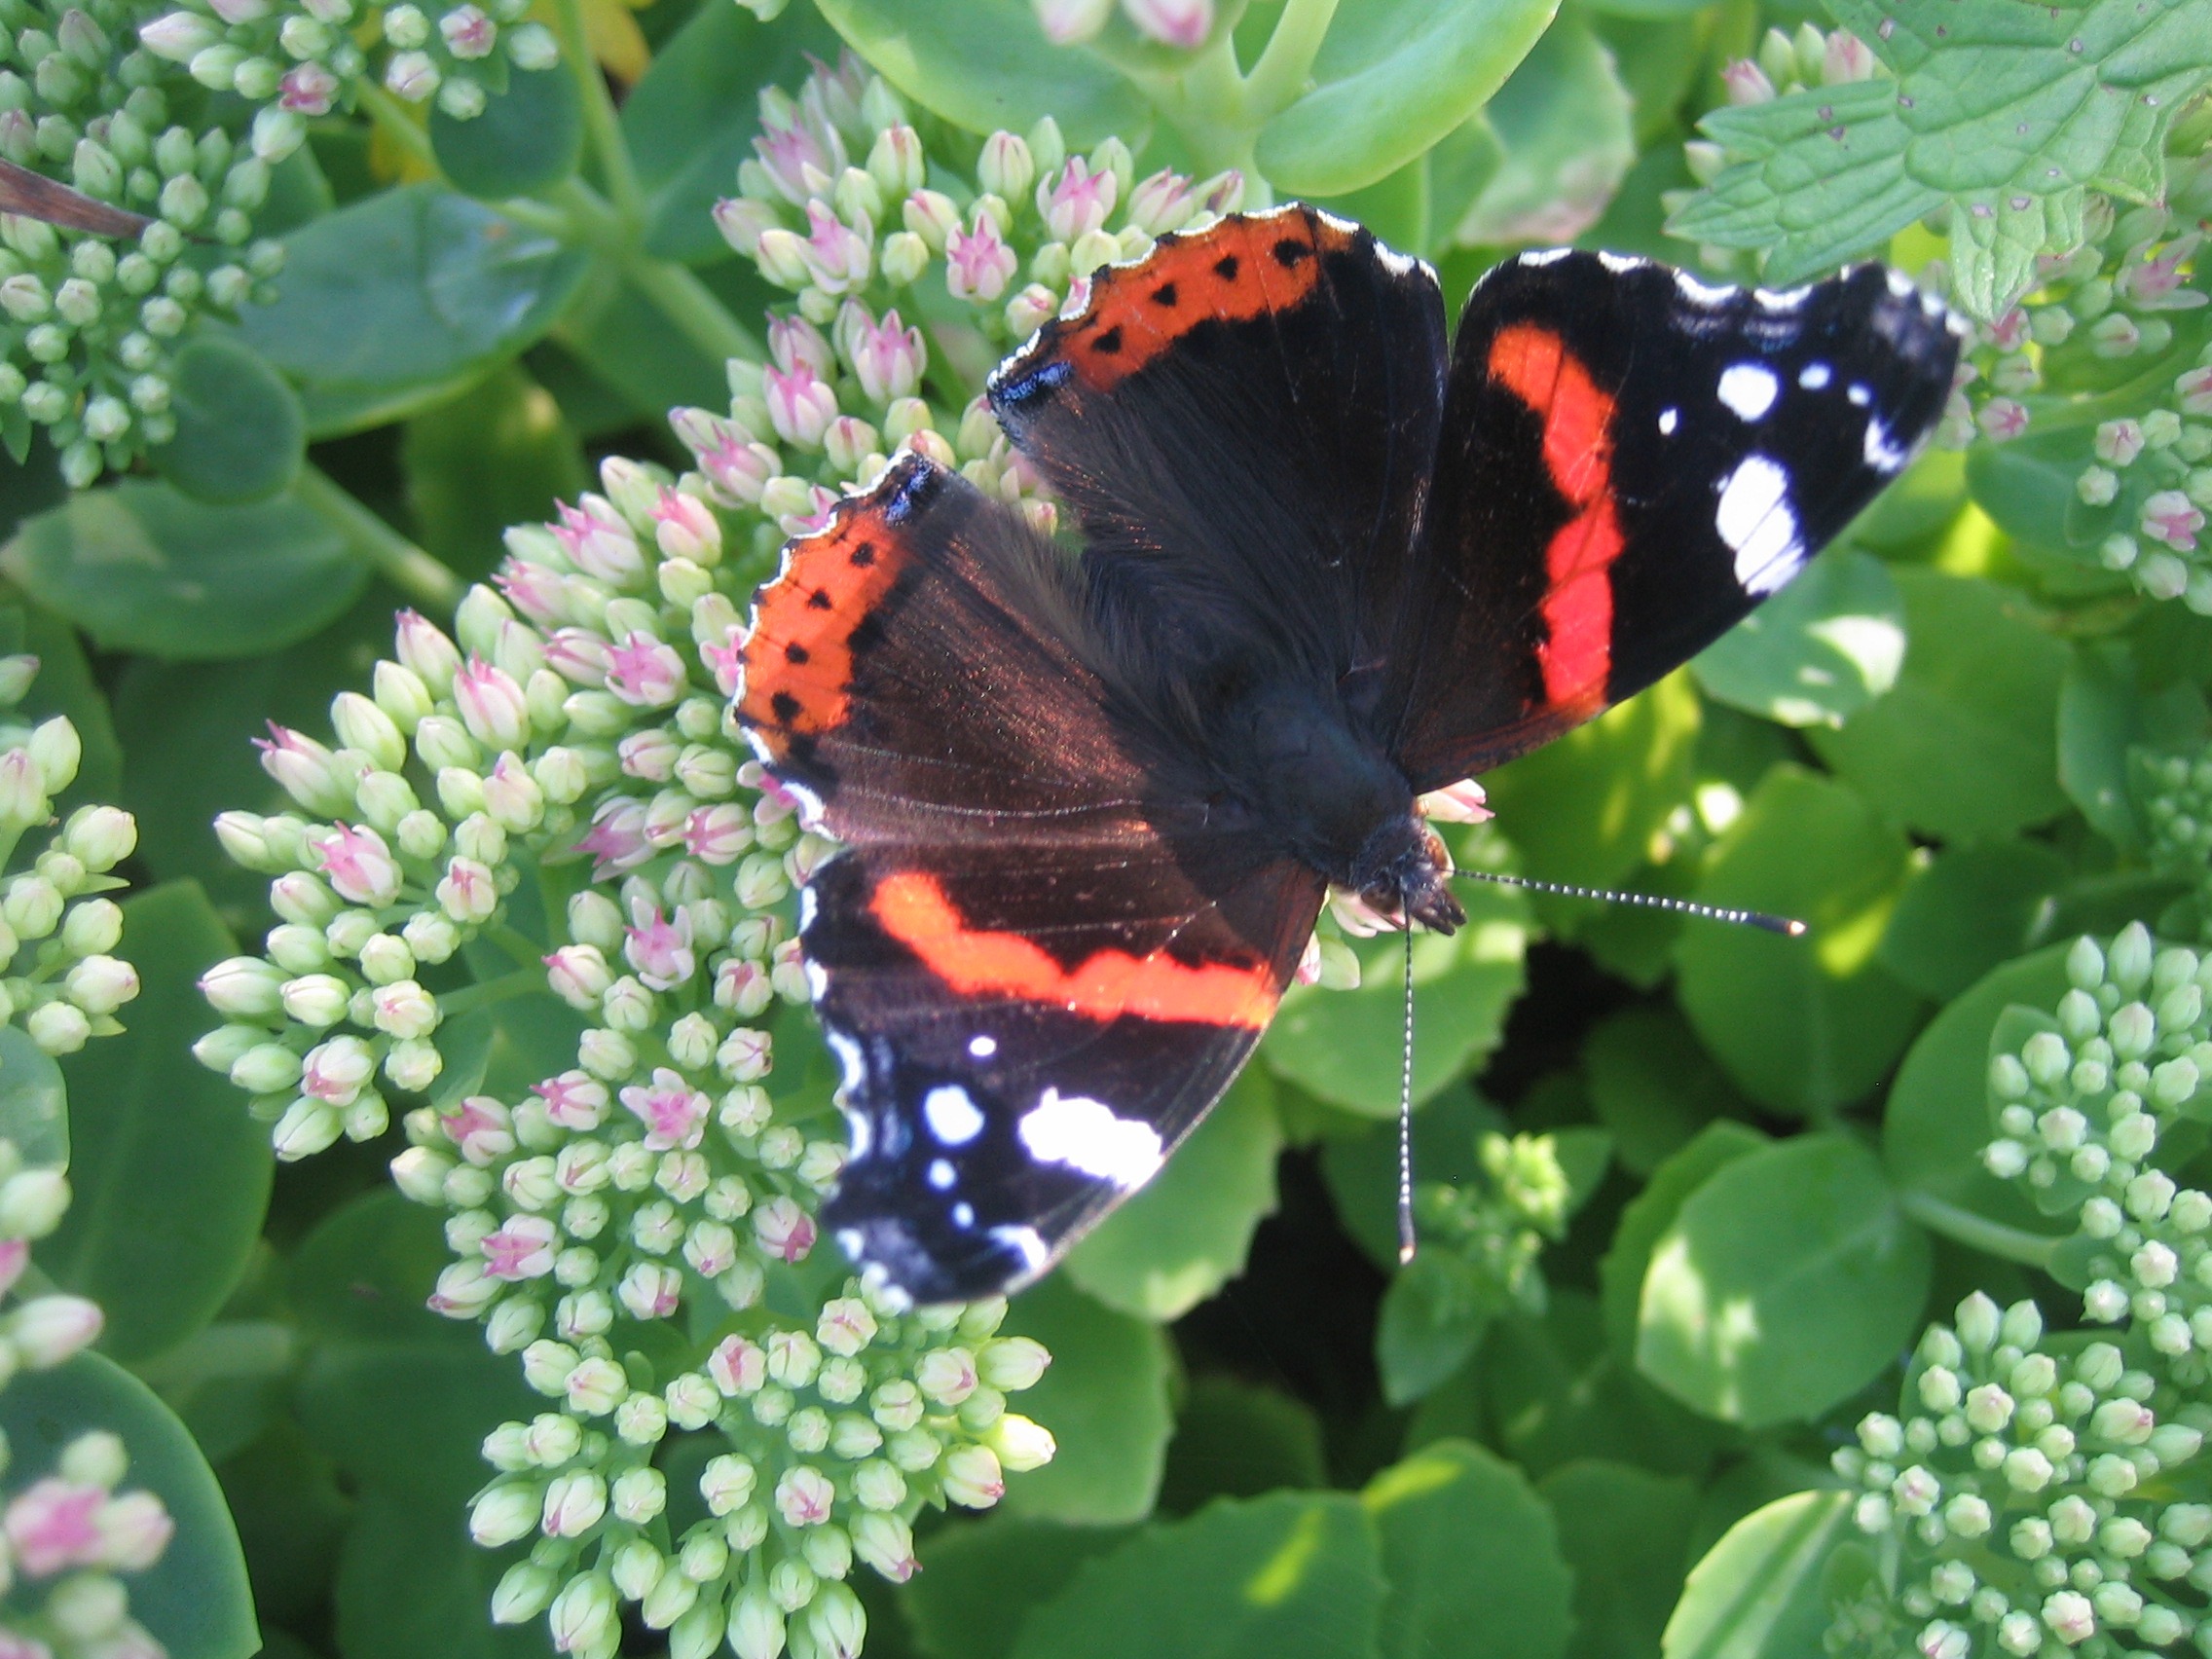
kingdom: Animalia
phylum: Arthropoda
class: Insecta
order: Lepidoptera
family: Nymphalidae
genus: Vanessa
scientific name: Vanessa atalanta
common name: Admiral
